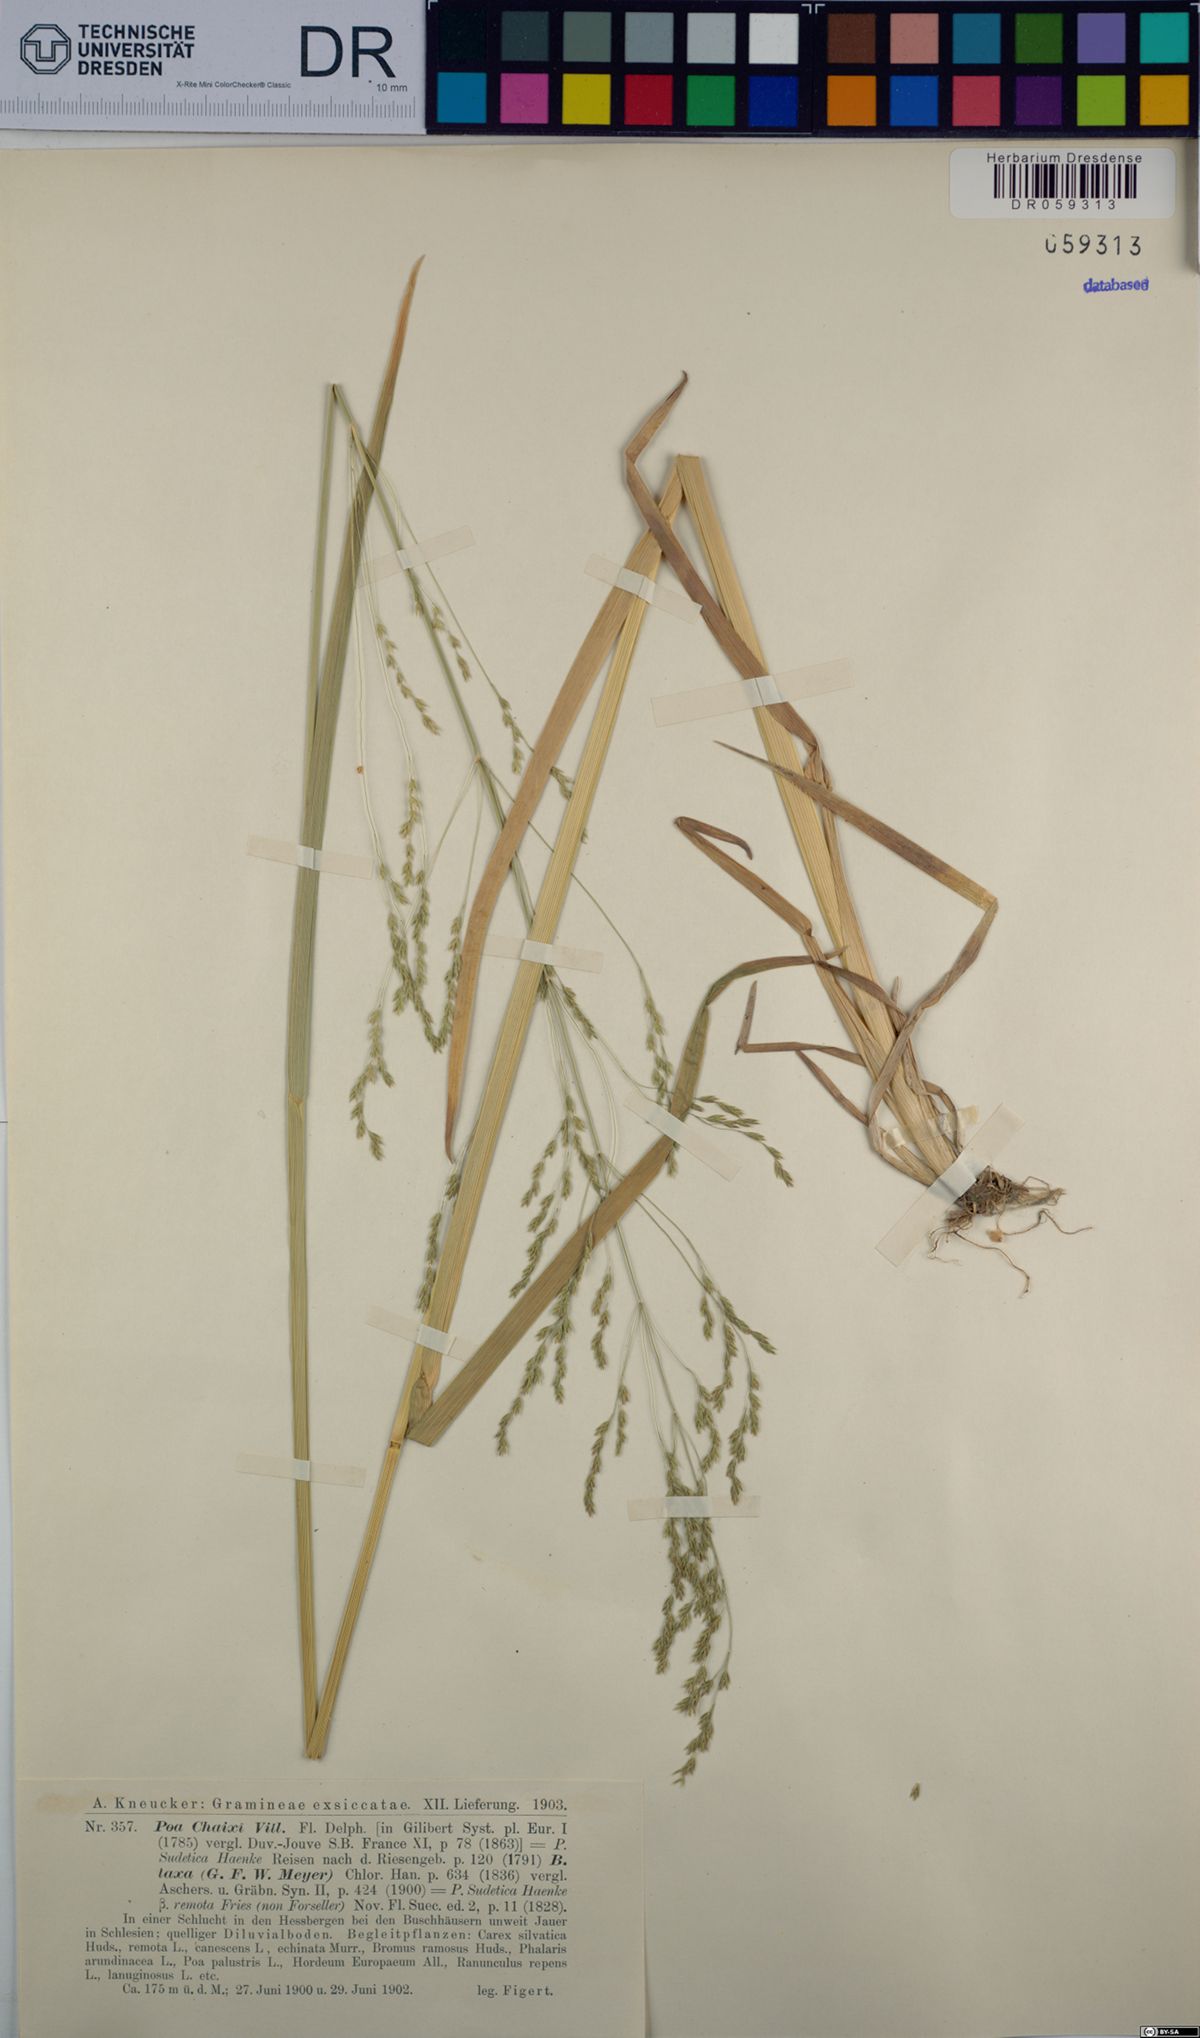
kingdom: Plantae
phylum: Tracheophyta
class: Liliopsida
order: Poales
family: Poaceae
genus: Poa
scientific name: Poa chaixii
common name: Broad-leaved meadow-grass
